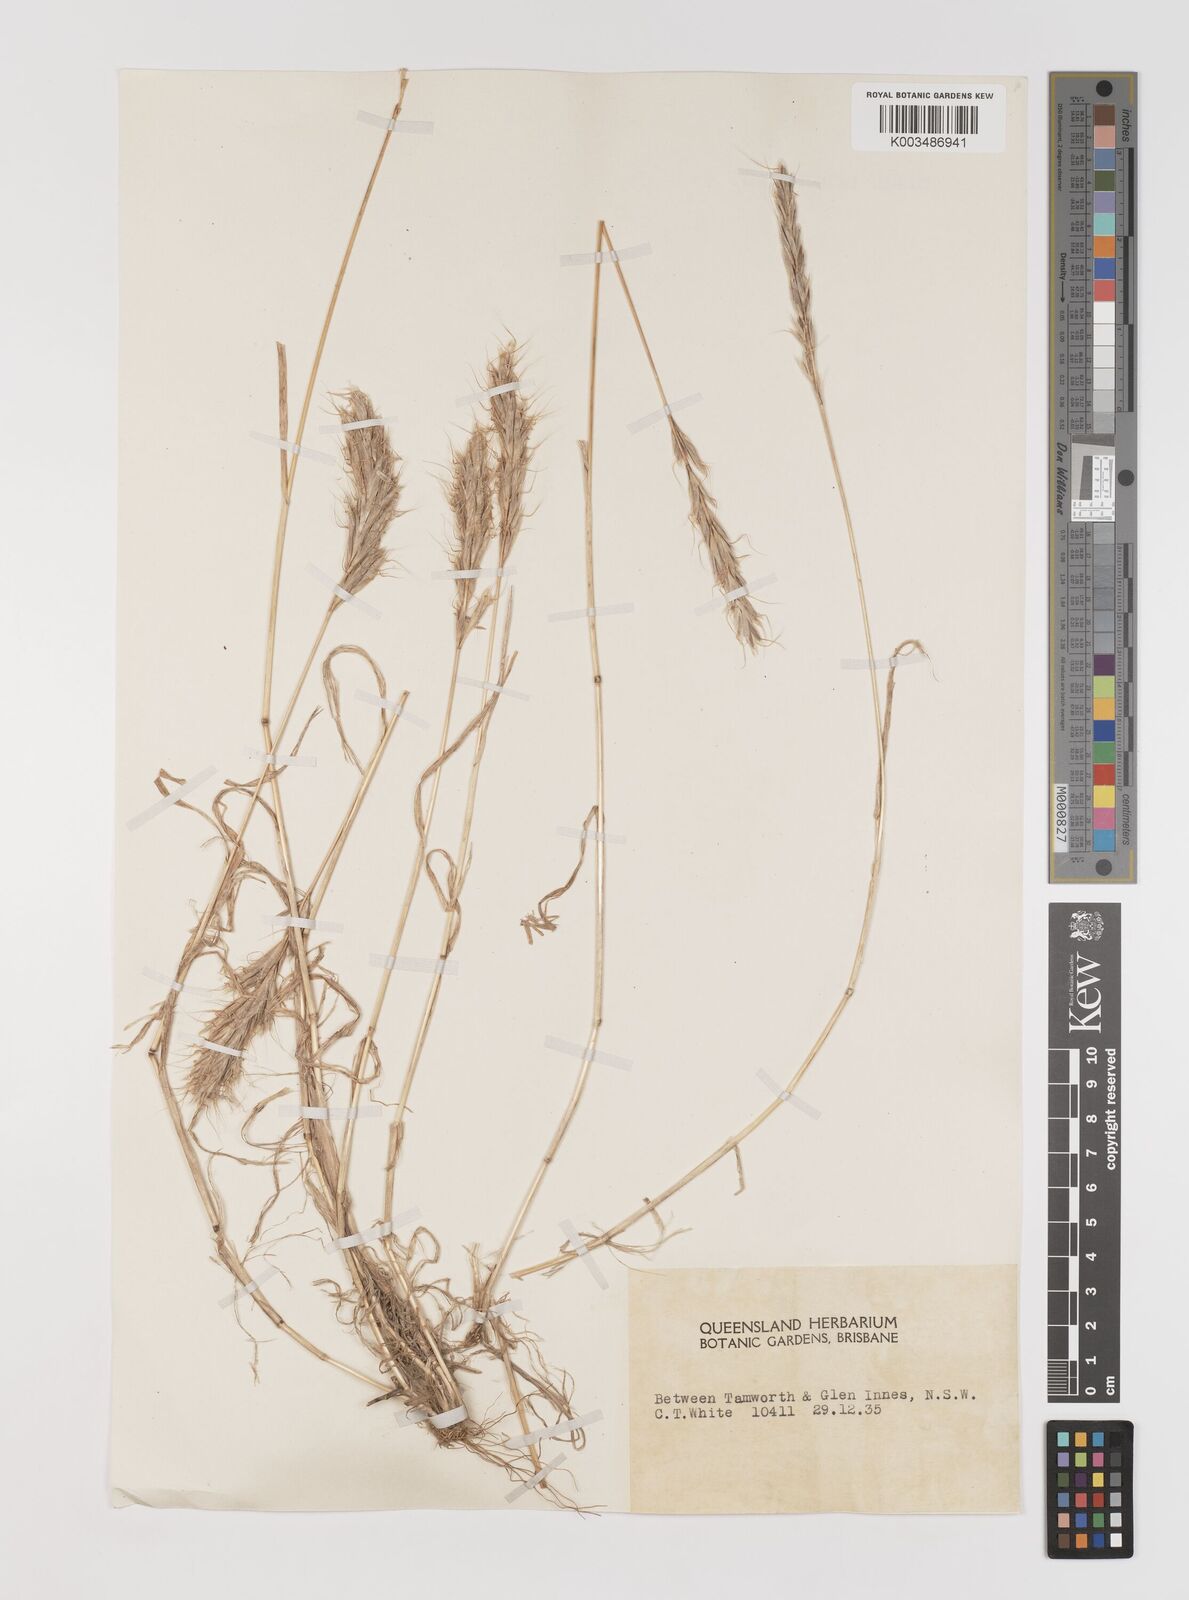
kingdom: Plantae
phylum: Tracheophyta
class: Liliopsida
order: Poales
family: Poaceae
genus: Bromus
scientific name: Bromus alopecuros
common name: Weedy brome
